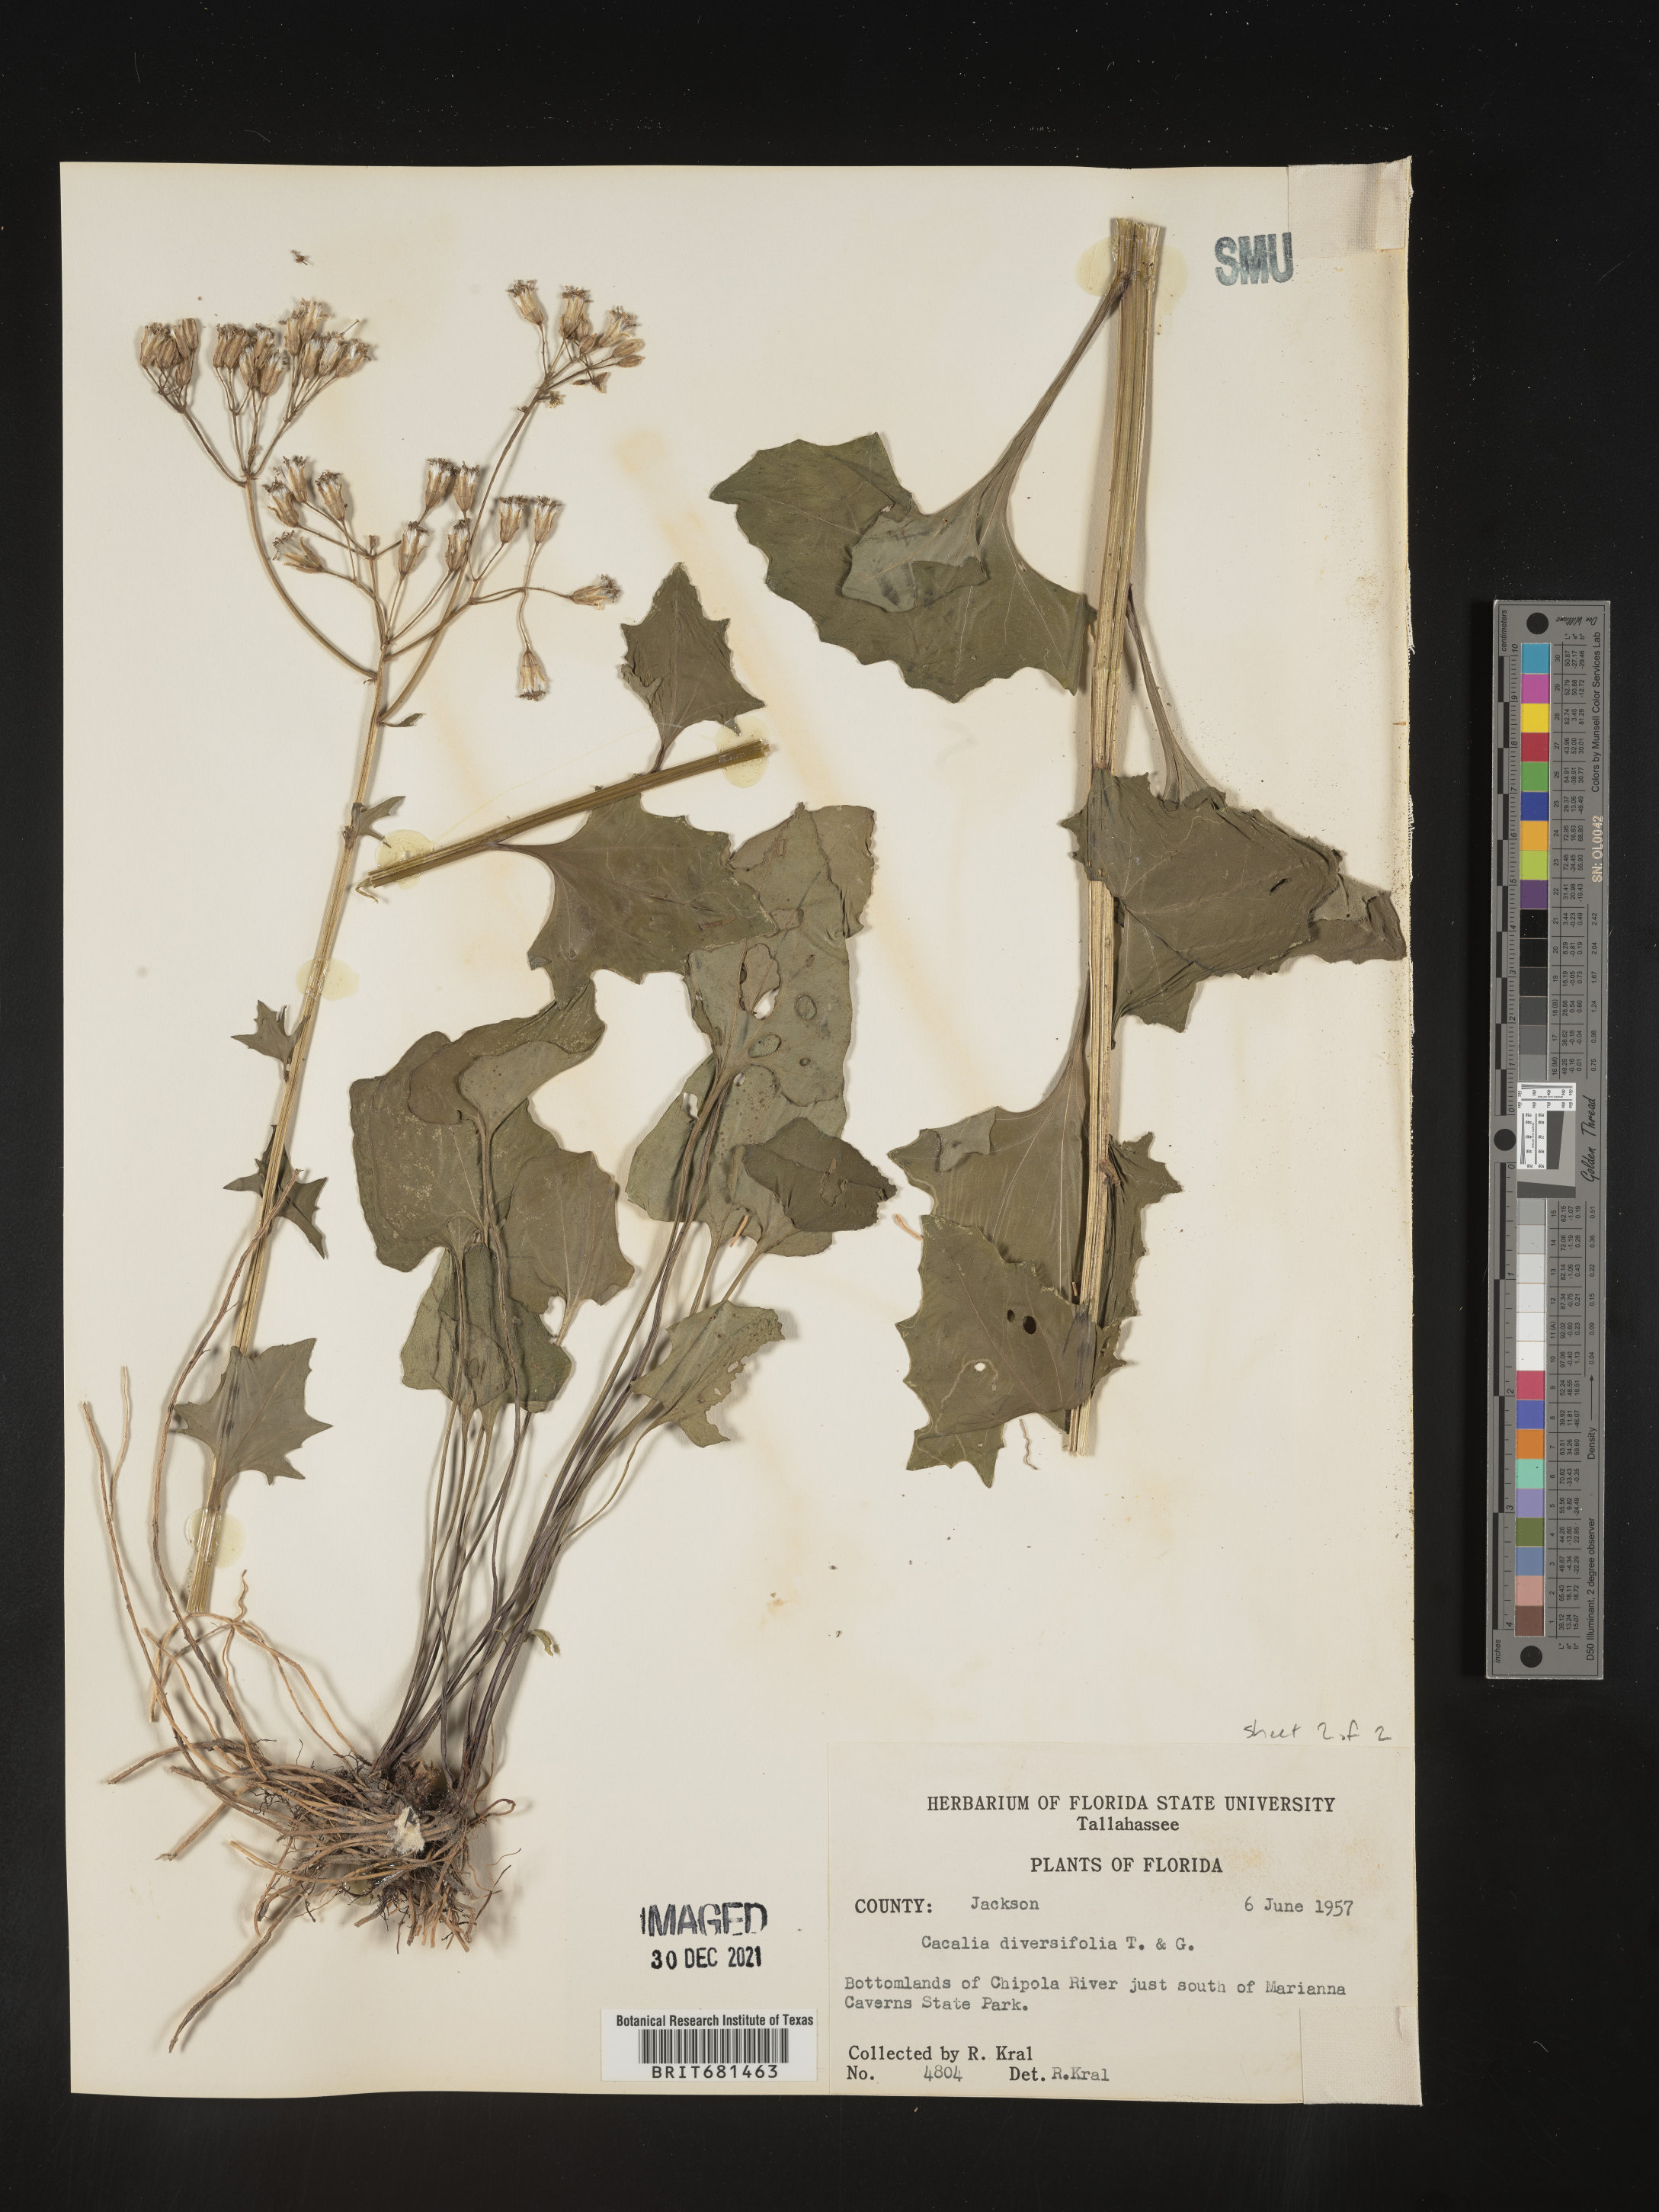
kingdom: Plantae
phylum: Tracheophyta
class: Magnoliopsida
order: Asterales
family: Asteraceae
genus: Arnoglossum
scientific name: Arnoglossum diversifolium
